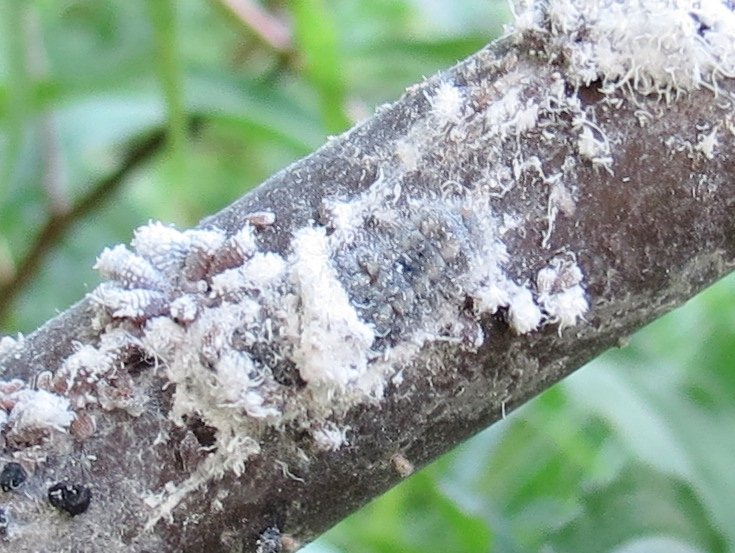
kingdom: Animalia
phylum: Arthropoda
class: Insecta
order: Lepidoptera
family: Lycaenidae
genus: Feniseca
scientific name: Feniseca tarquinius
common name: Harvester
